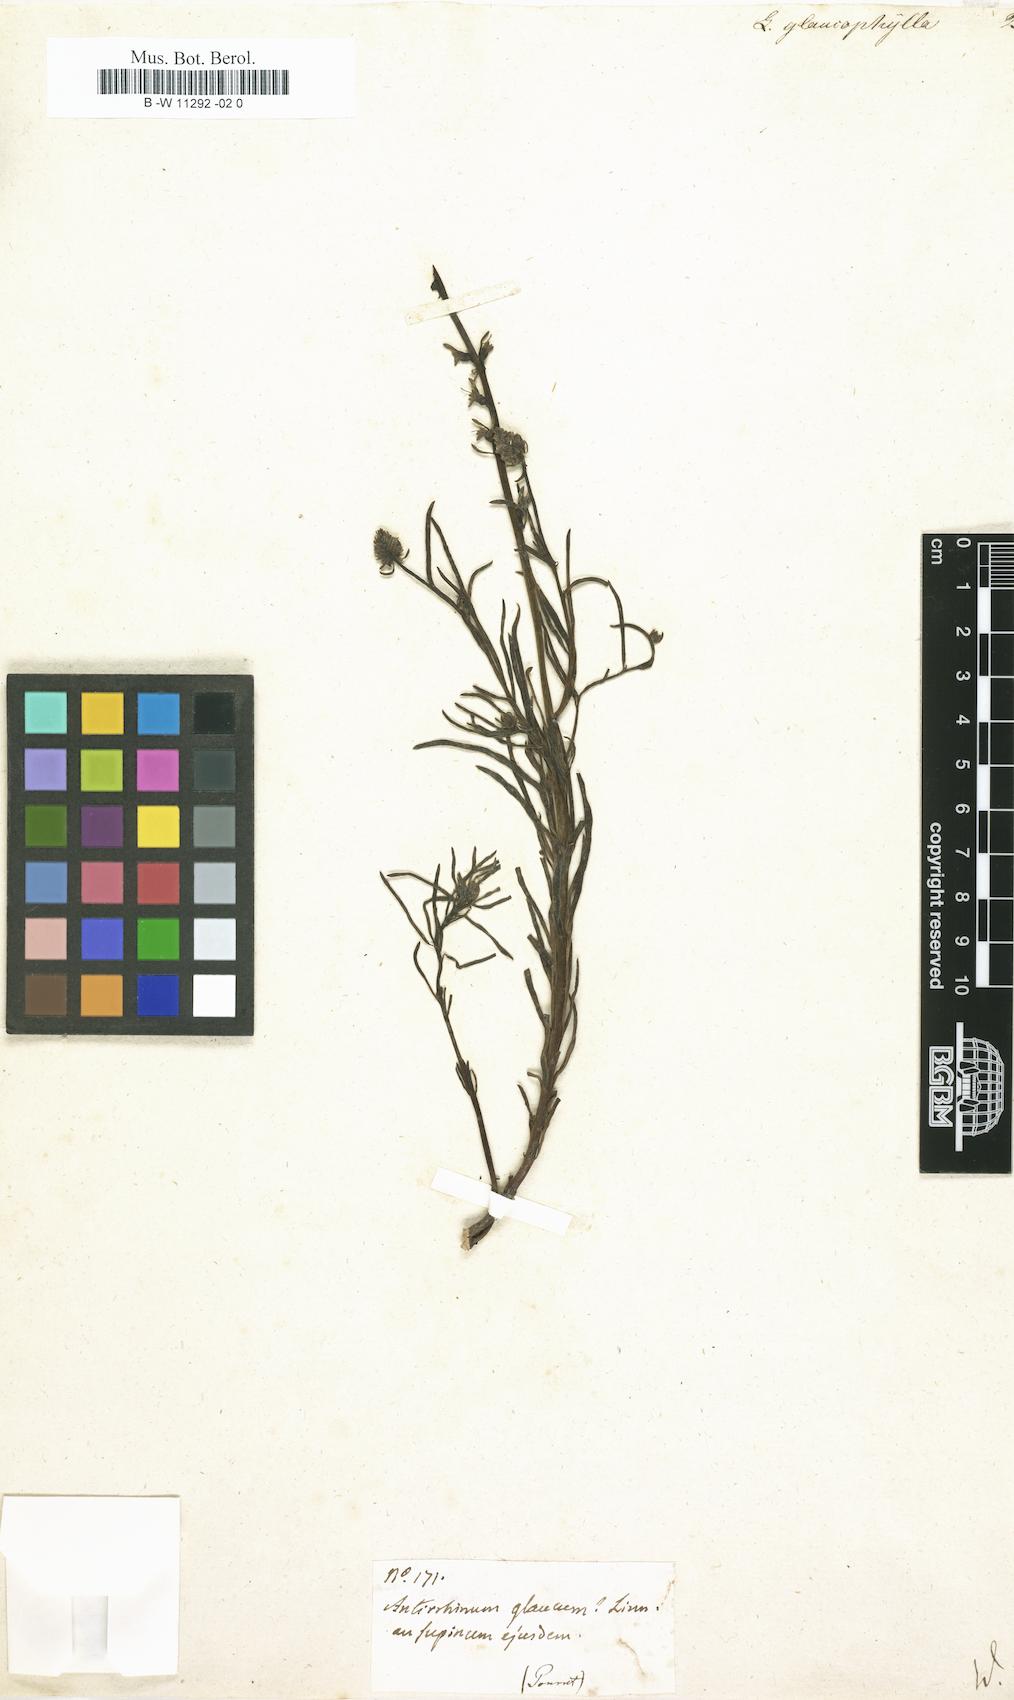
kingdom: Plantae
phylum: Tracheophyta
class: Magnoliopsida
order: Lamiales
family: Plantaginaceae
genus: Linaria
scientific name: Linaria
